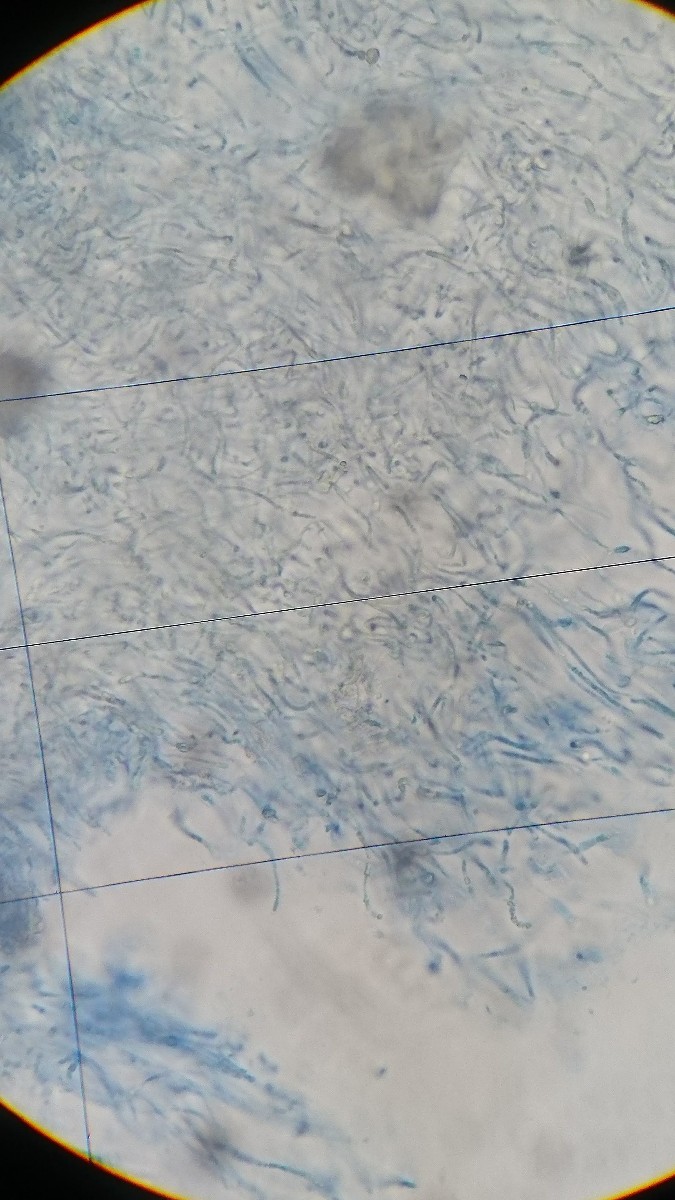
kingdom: Fungi
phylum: Ascomycota
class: Leotiomycetes
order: Helotiales
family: Gelatinodiscaceae
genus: Ombrophila
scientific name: Ombrophila
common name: bævreskive
